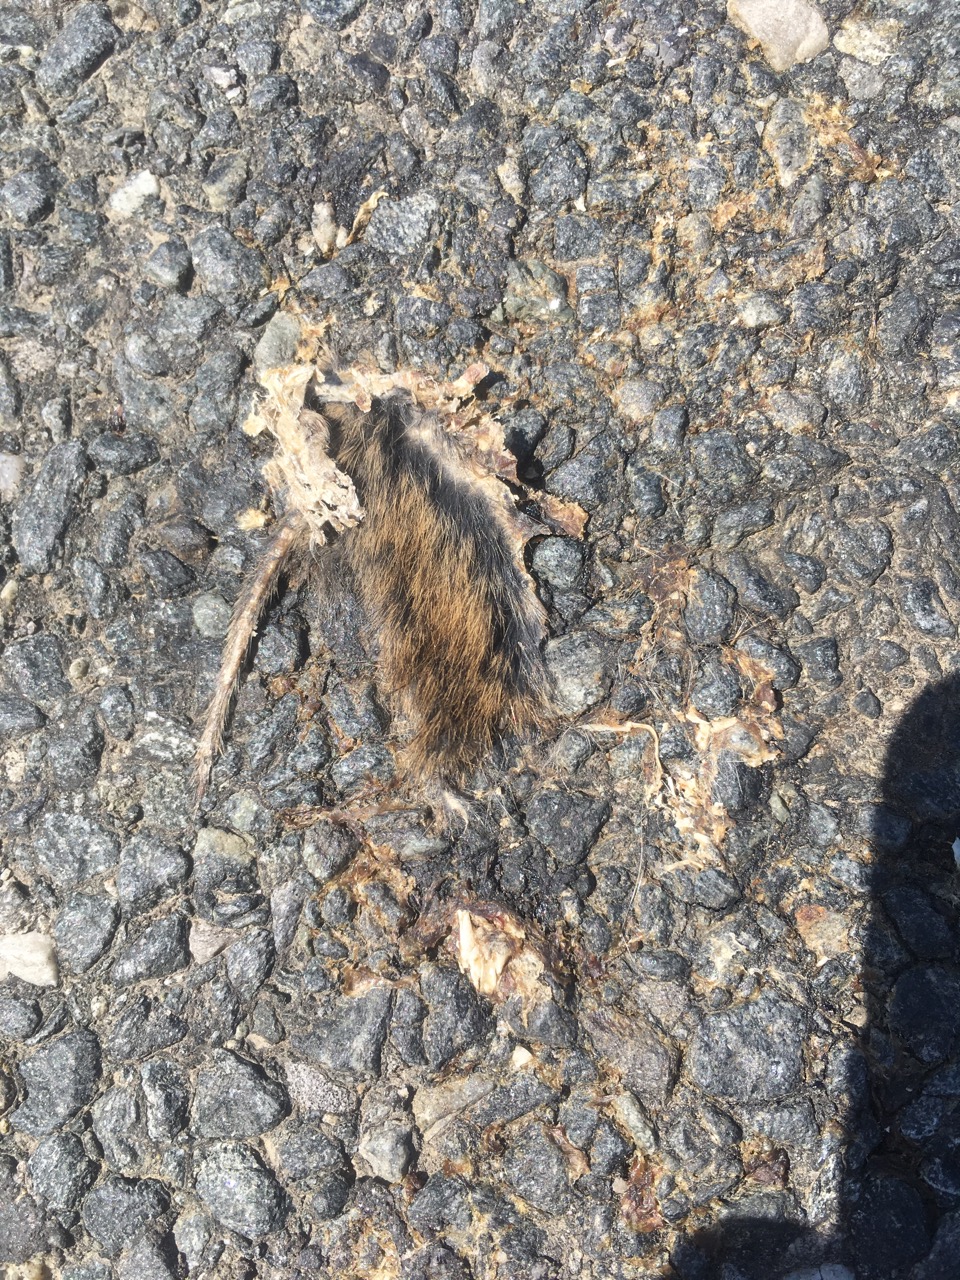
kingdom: Animalia
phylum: Chordata
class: Mammalia
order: Rodentia
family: Cricetidae
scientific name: Cricetidae
